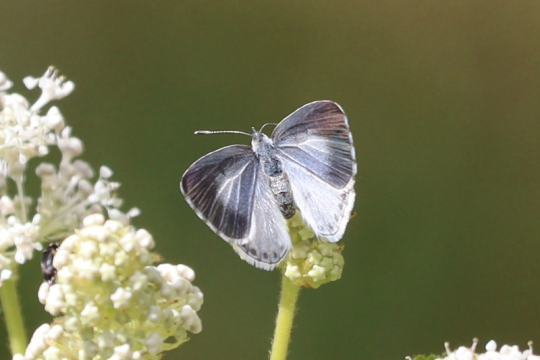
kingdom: Animalia
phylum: Arthropoda
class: Insecta
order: Lepidoptera
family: Lycaenidae
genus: Cyaniris
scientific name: Cyaniris neglecta
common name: Summer Azure
